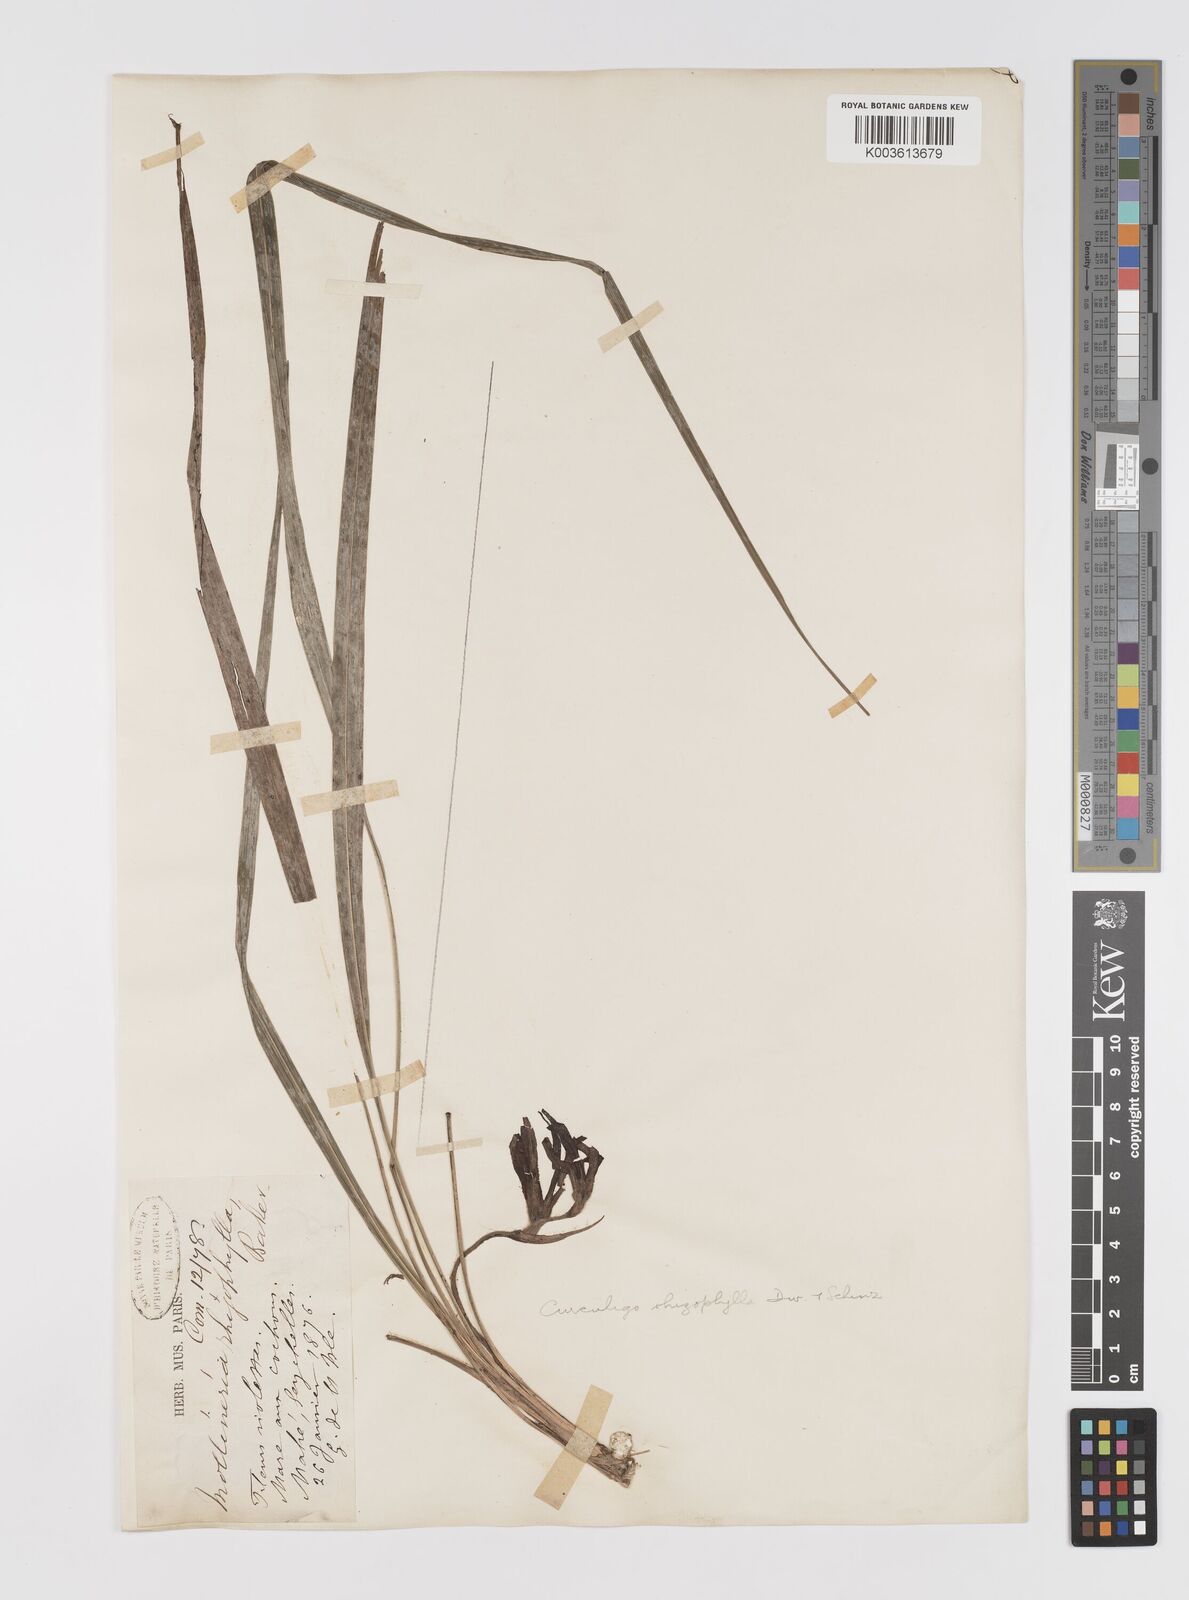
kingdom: Plantae
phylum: Tracheophyta
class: Liliopsida
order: Asparagales
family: Hypoxidaceae
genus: Curculigo
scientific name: Curculigo rhizophylla
